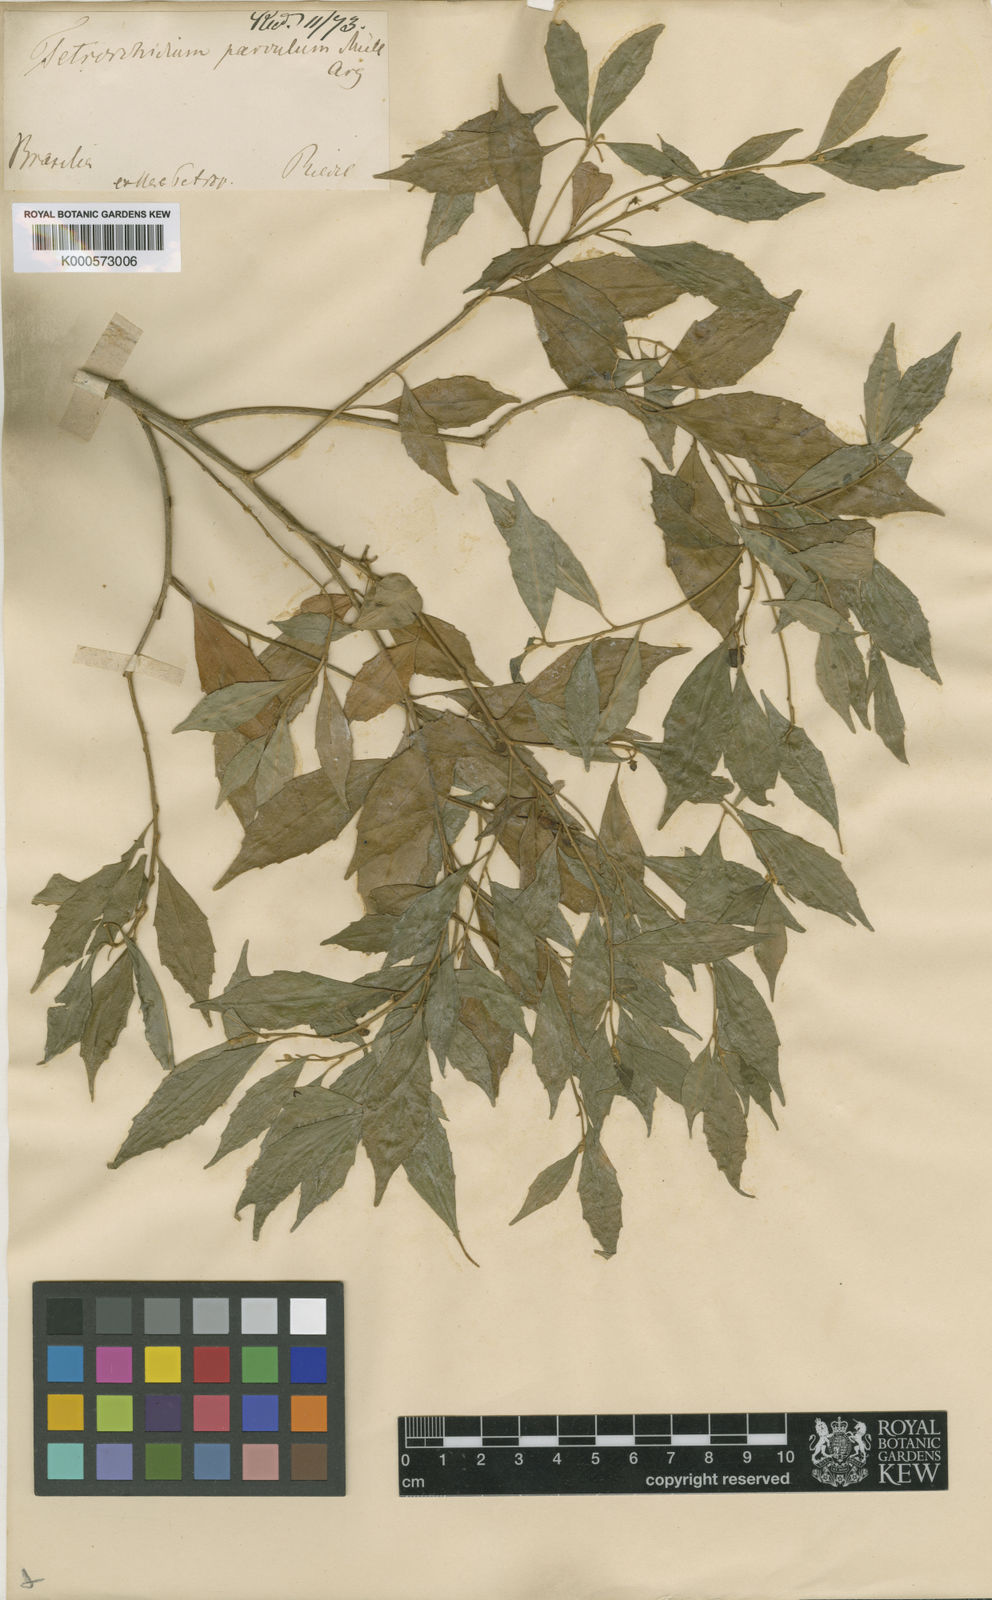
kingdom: Plantae
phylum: Tracheophyta
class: Magnoliopsida
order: Malpighiales
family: Euphorbiaceae
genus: Tetrorchidium
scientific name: Tetrorchidium
